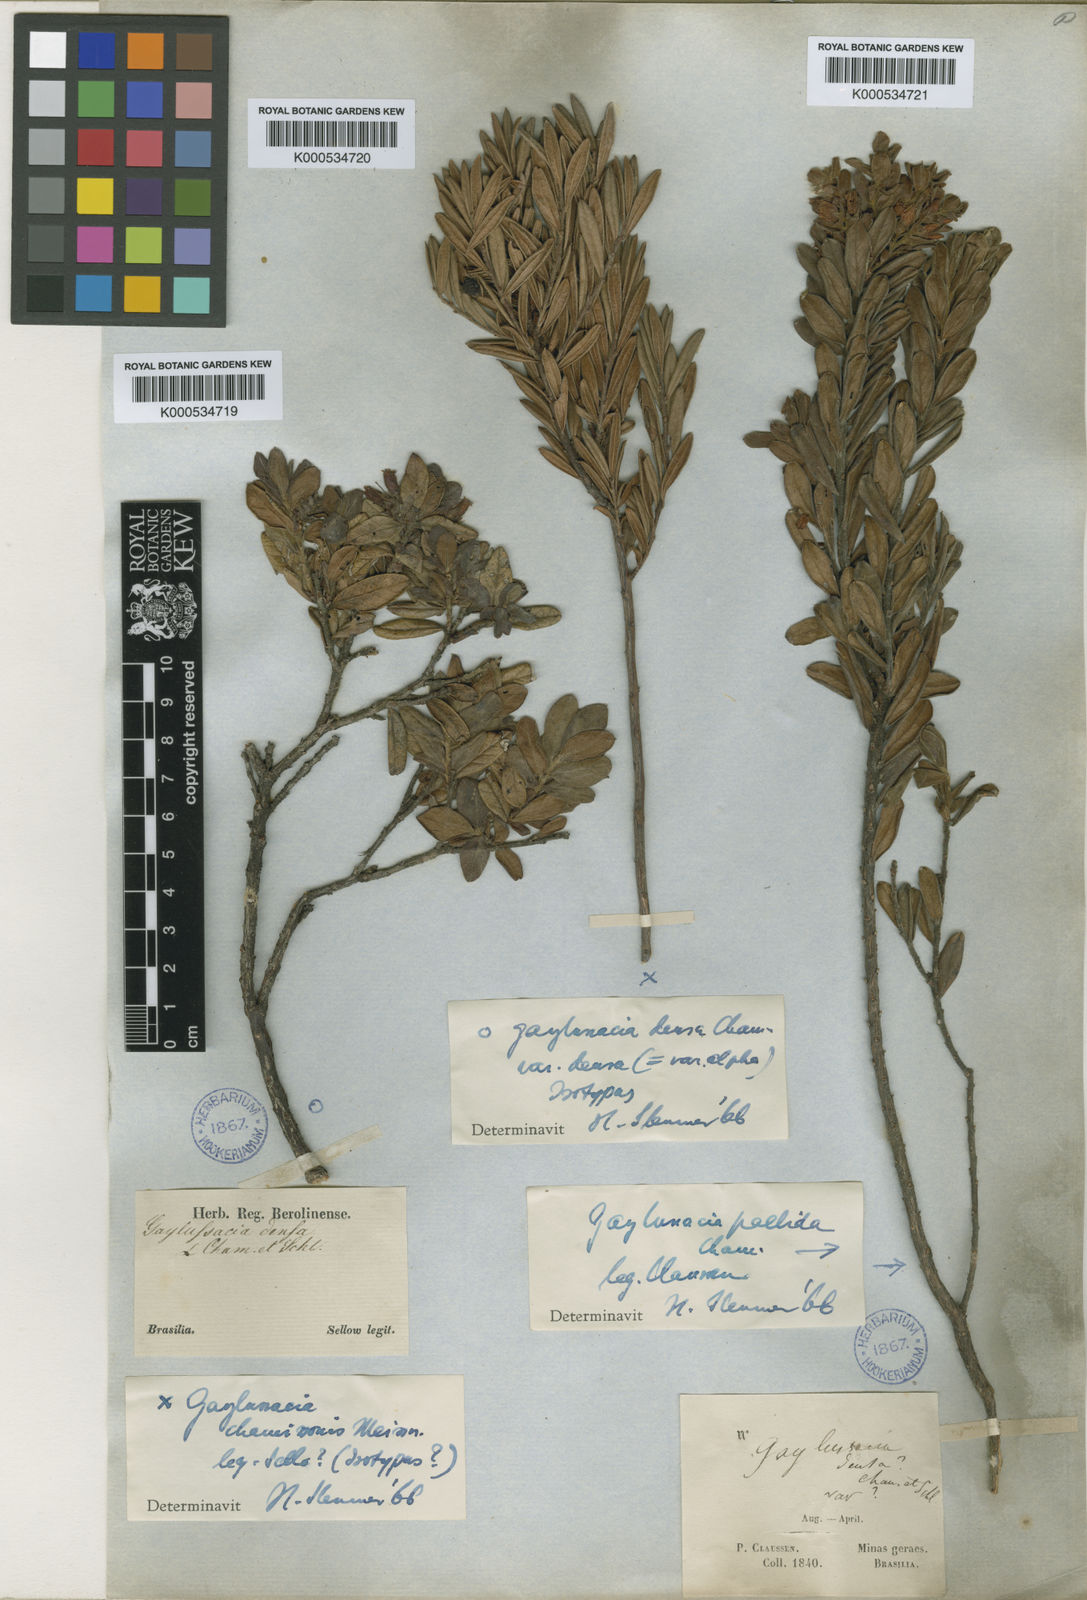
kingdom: Plantae
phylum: Tracheophyta
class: Magnoliopsida
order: Ericales
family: Ericaceae
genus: Gaylussacia
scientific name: Gaylussacia densa
